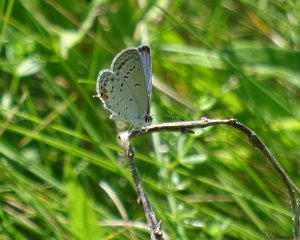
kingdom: Animalia
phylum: Arthropoda
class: Insecta
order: Lepidoptera
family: Lycaenidae
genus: Elkalyce
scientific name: Elkalyce comyntas
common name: Eastern Tailed-Blue
